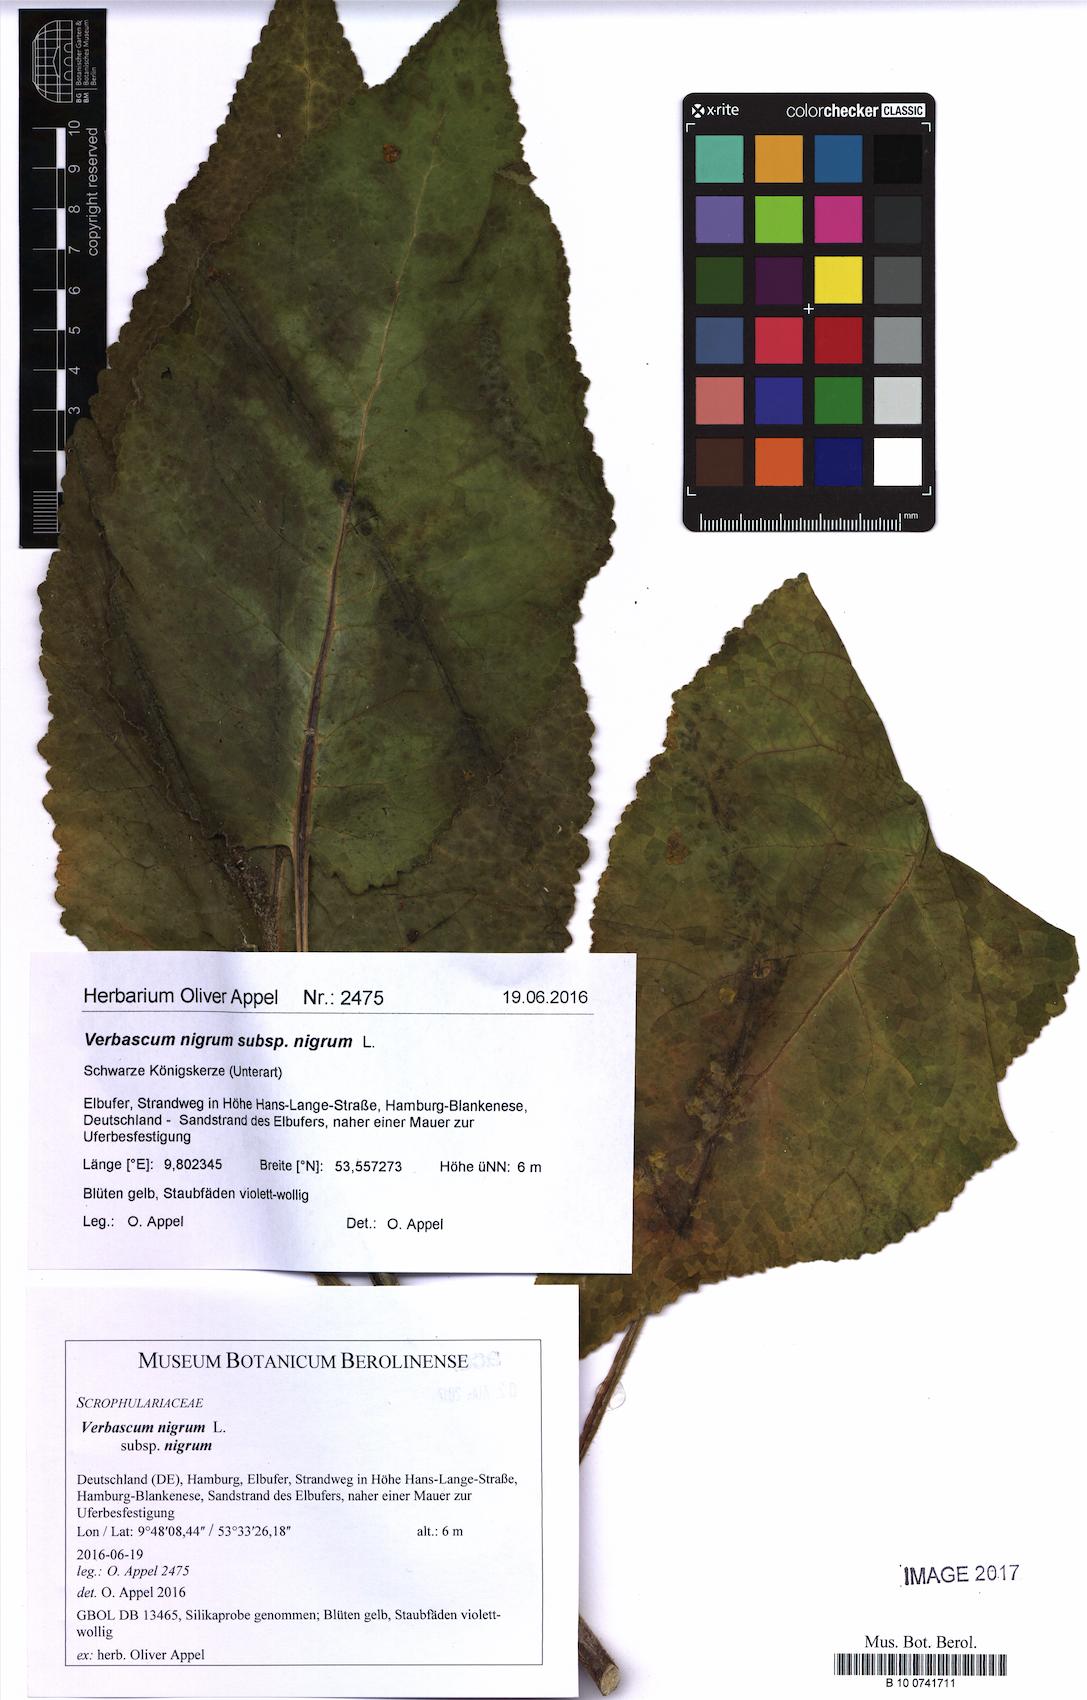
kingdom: Plantae
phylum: Tracheophyta
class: Magnoliopsida
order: Lamiales
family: Scrophulariaceae
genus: Verbascum
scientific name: Verbascum nigrum
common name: Dark mullein
